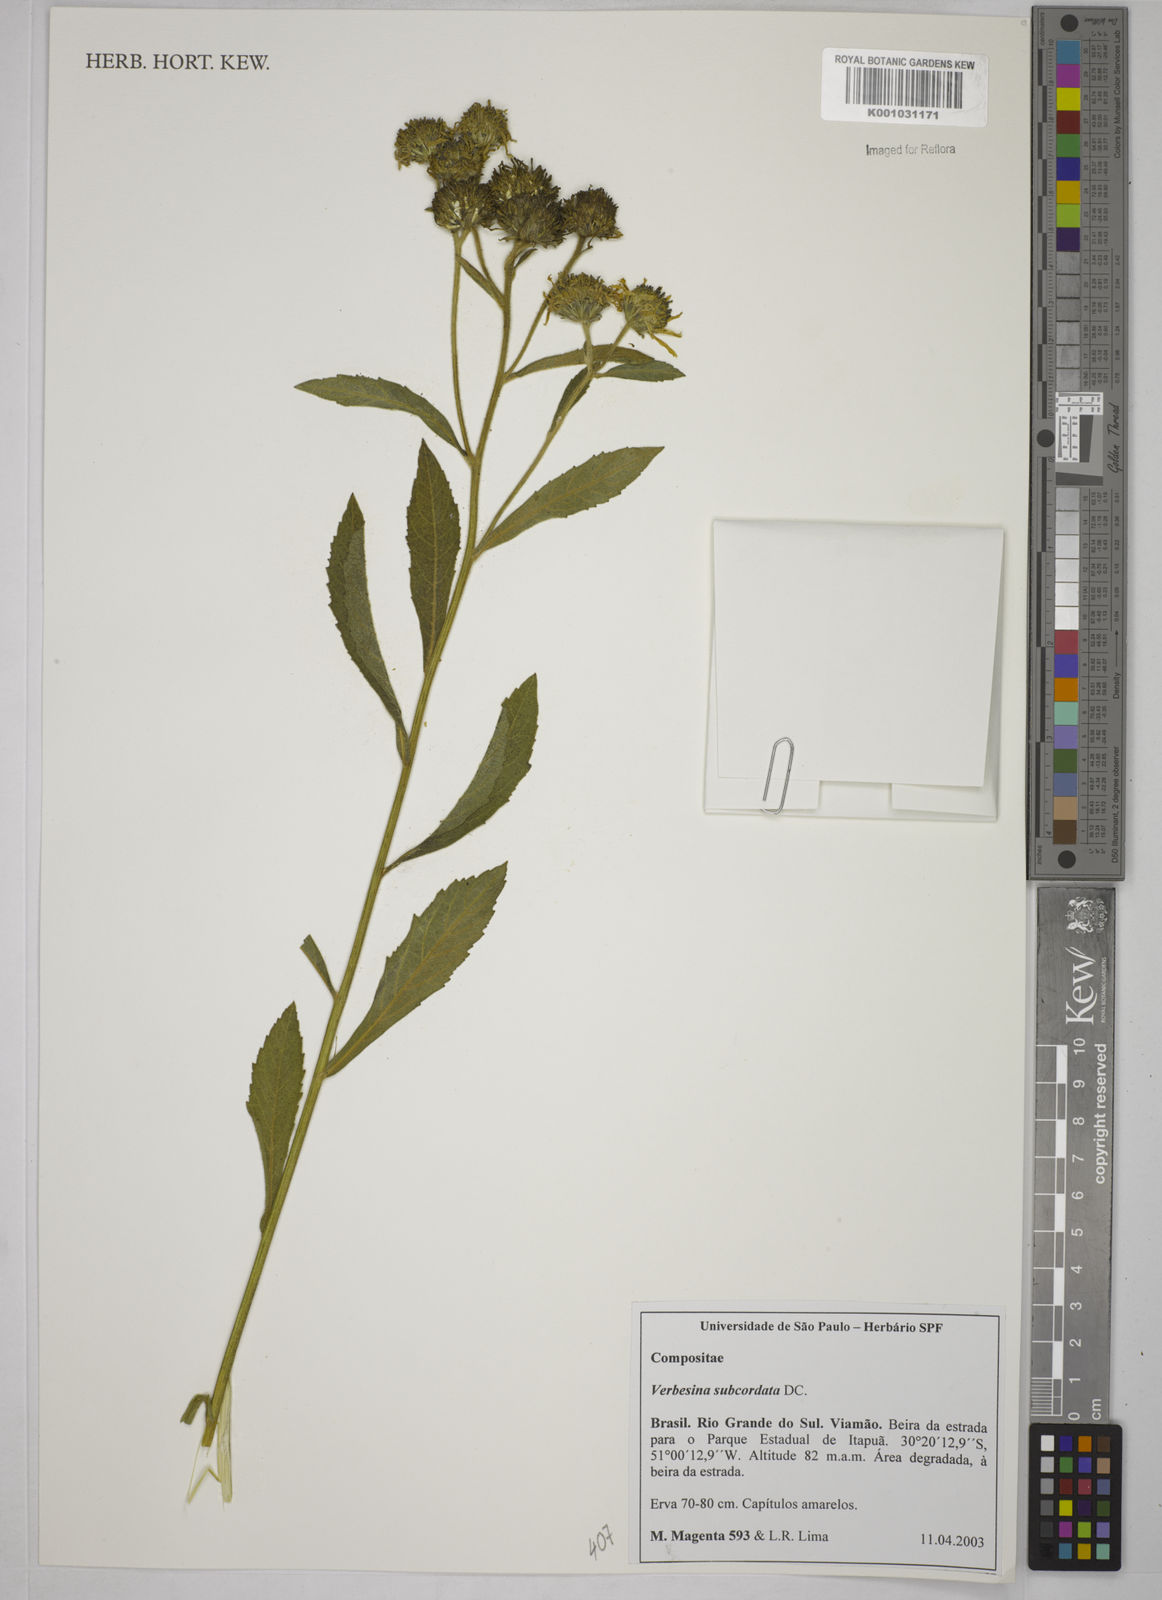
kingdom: Plantae
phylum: Tracheophyta
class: Magnoliopsida
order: Asterales
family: Asteraceae
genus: Verbesina
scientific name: Verbesina subcordata
